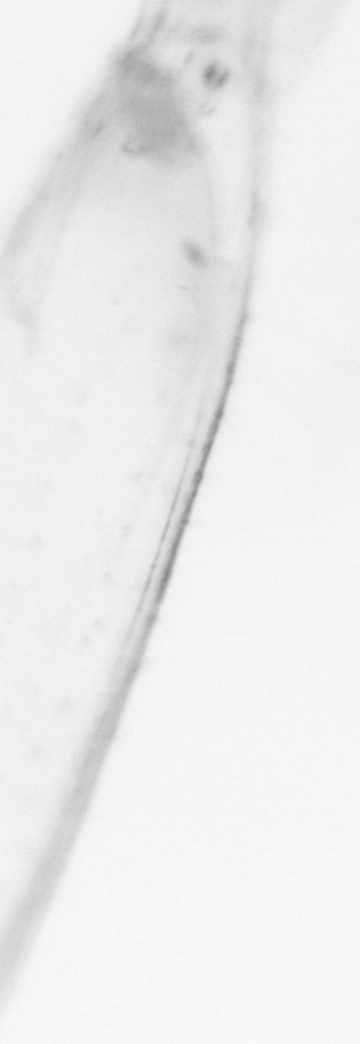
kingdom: Animalia
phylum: Chaetognatha
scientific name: Chaetognatha
